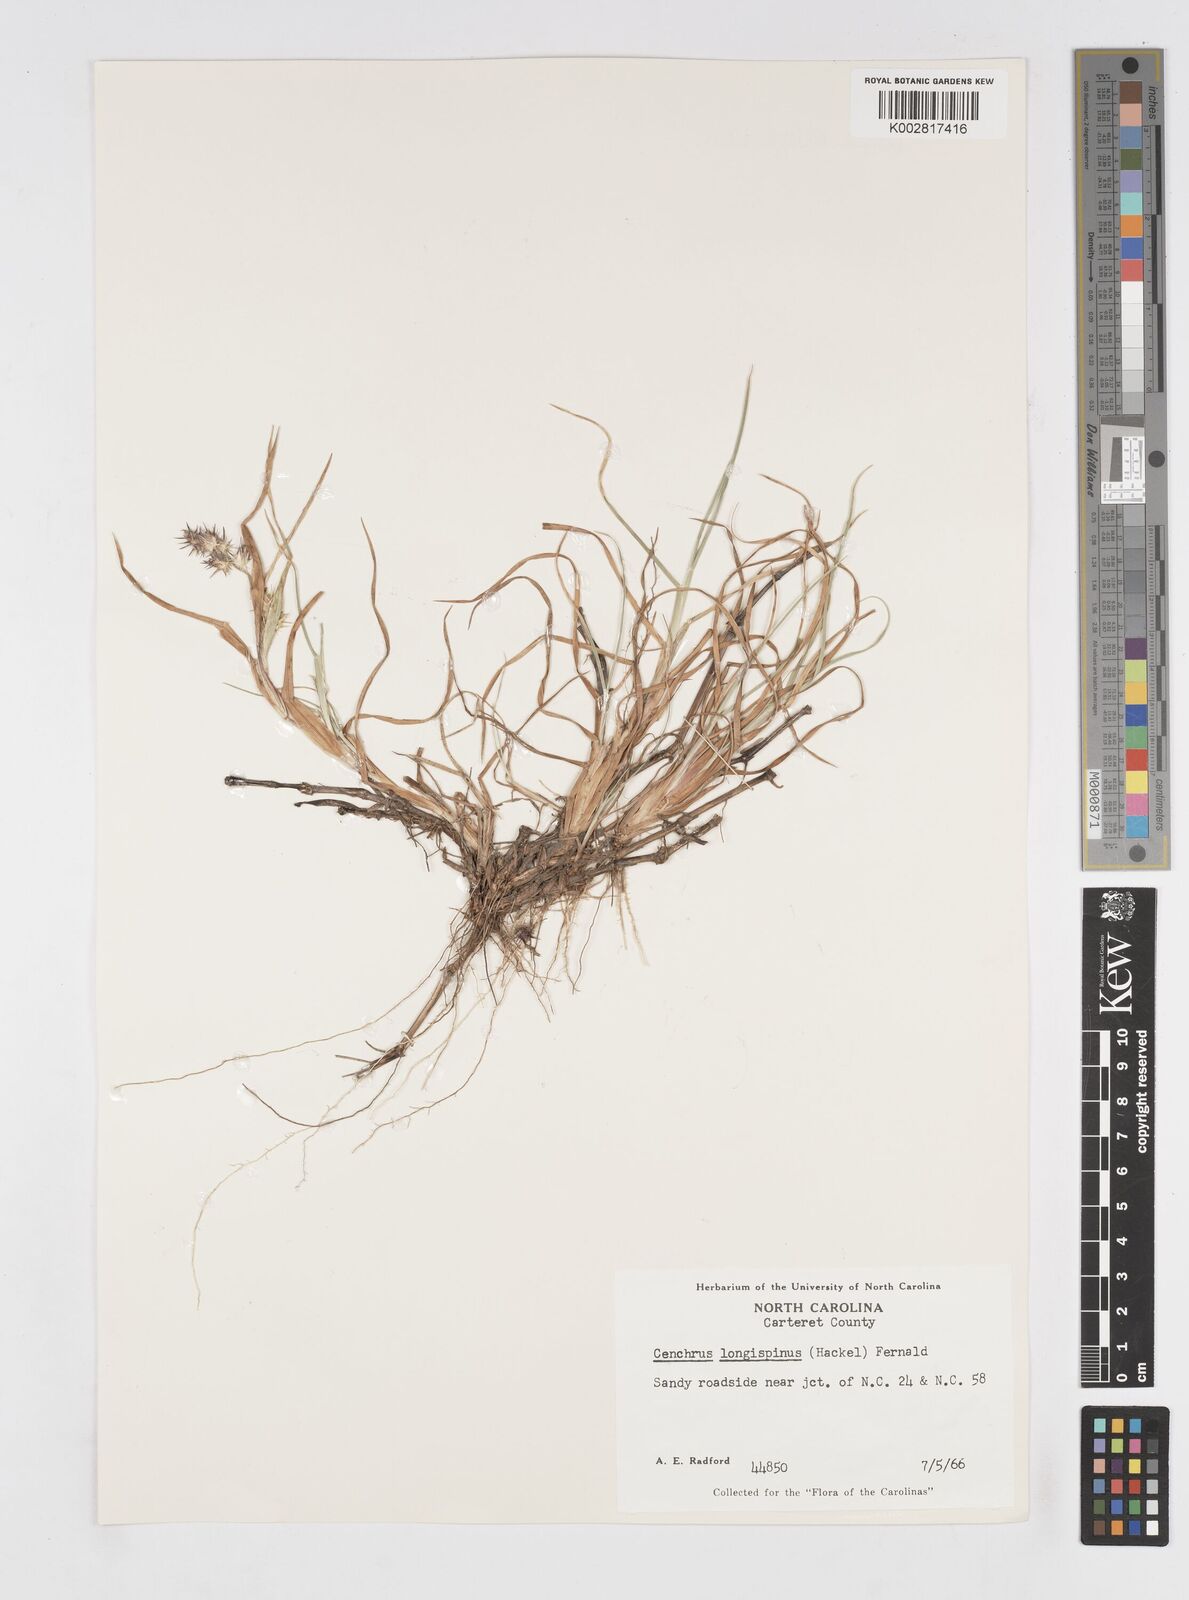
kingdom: Plantae
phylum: Tracheophyta
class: Liliopsida
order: Poales
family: Poaceae
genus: Cenchrus
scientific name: Cenchrus tribuloides
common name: Dune sandbur
